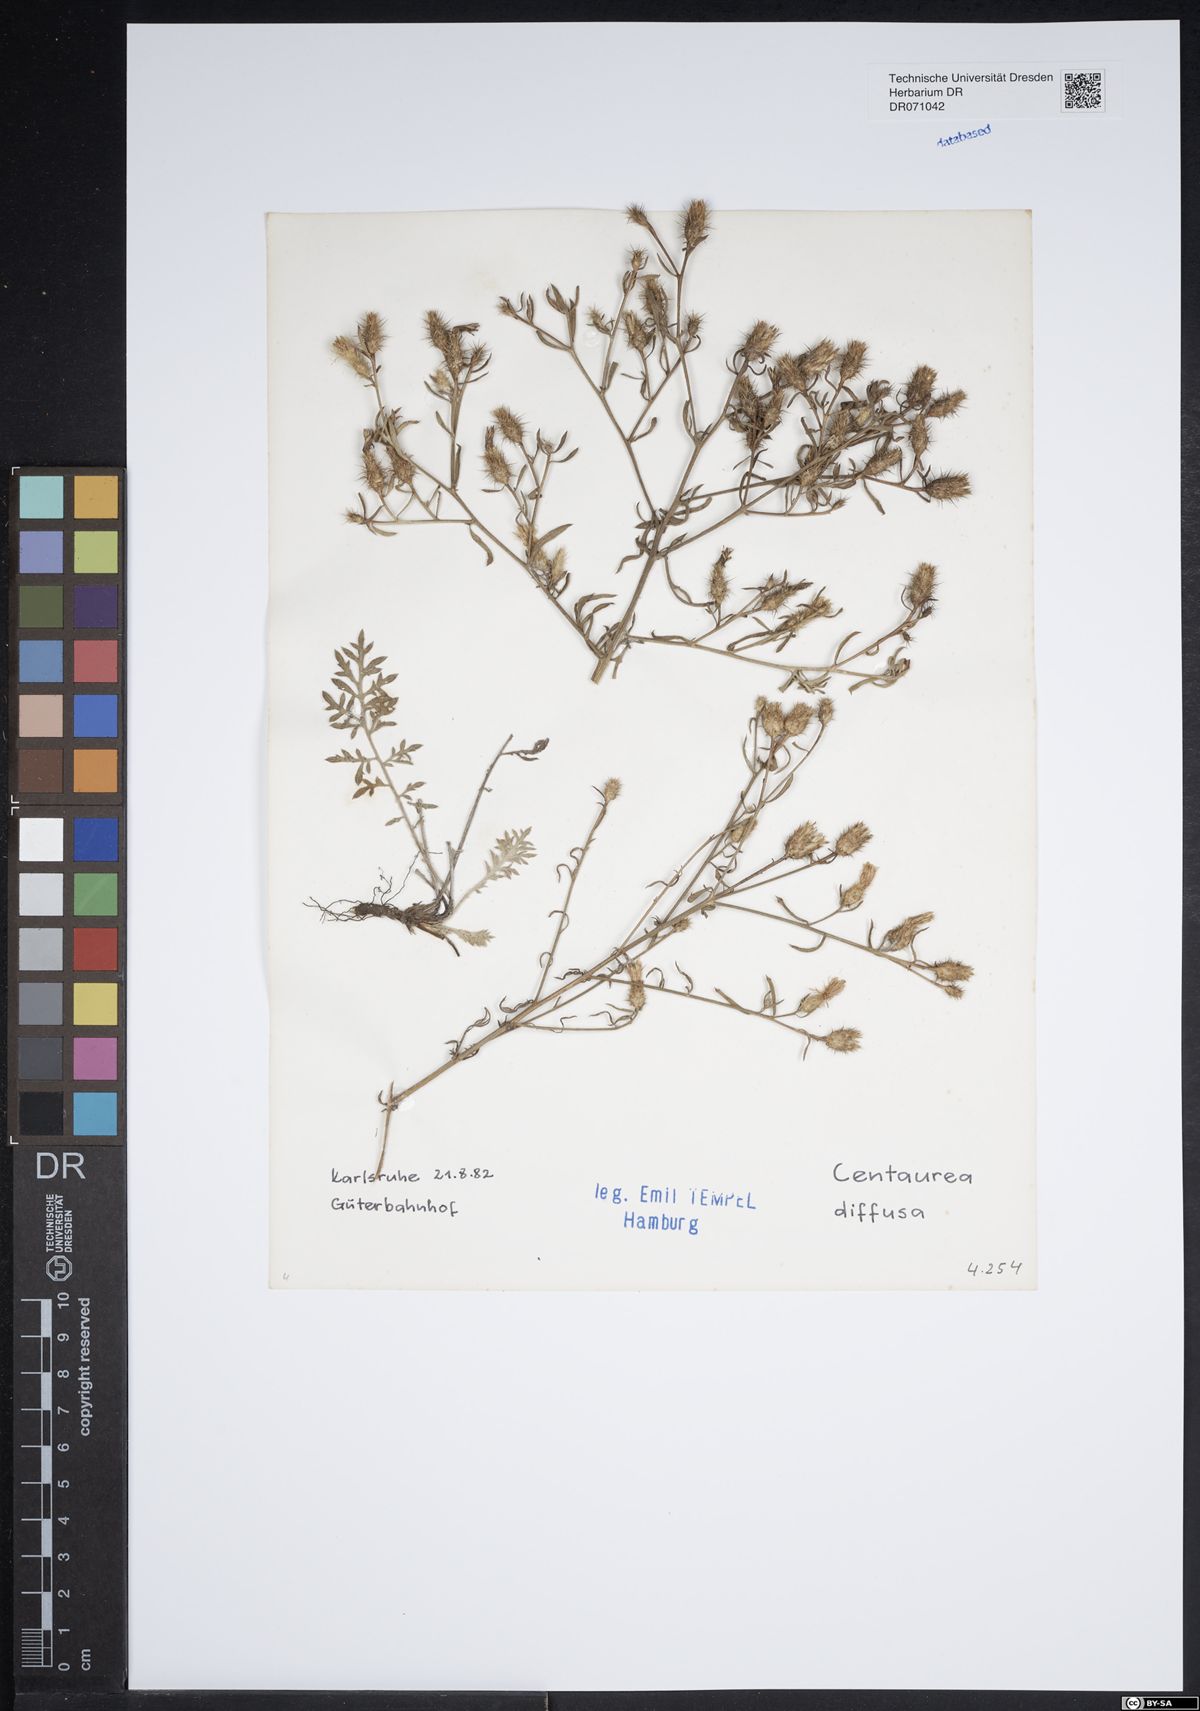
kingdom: Plantae
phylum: Tracheophyta
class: Magnoliopsida
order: Asterales
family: Asteraceae
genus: Centaurea
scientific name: Centaurea diffusa
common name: Diffuse knapweed
